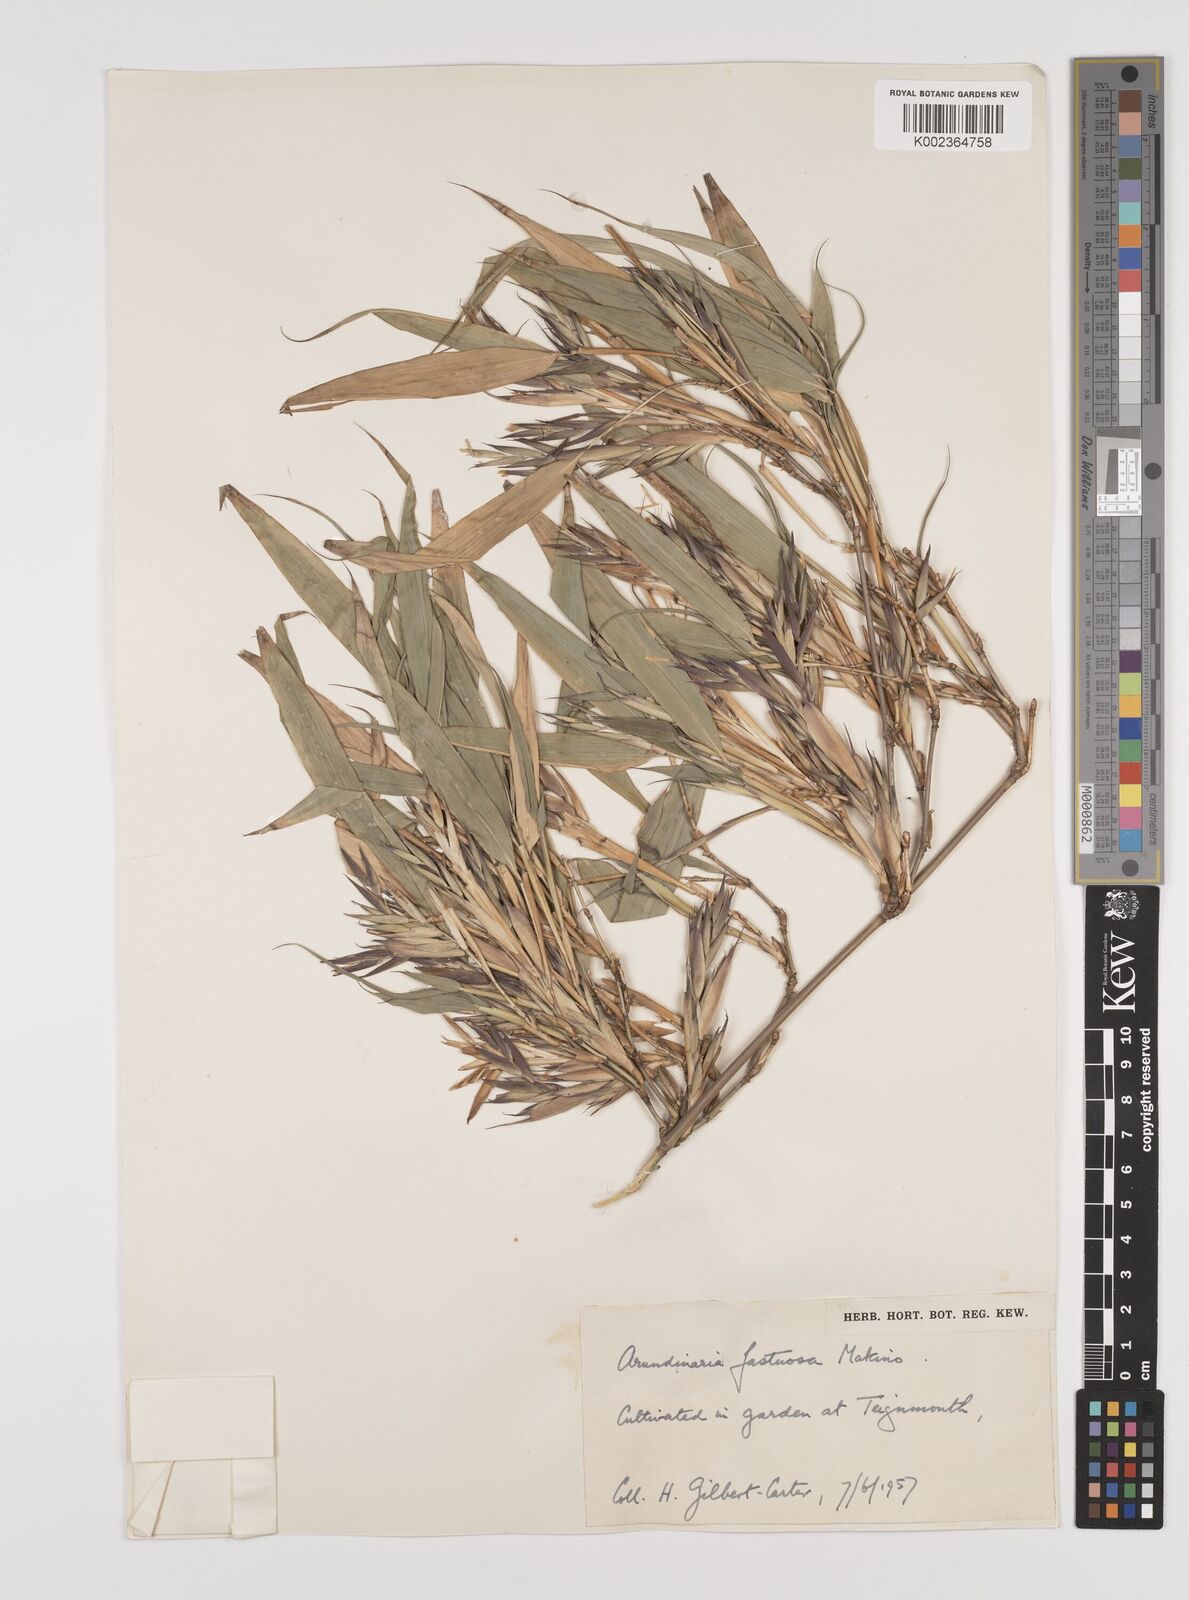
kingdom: Plantae
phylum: Tracheophyta
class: Liliopsida
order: Poales
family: Poaceae
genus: Semiarundinaria
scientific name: Semiarundinaria fastuosa
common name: Narihira bamboo
